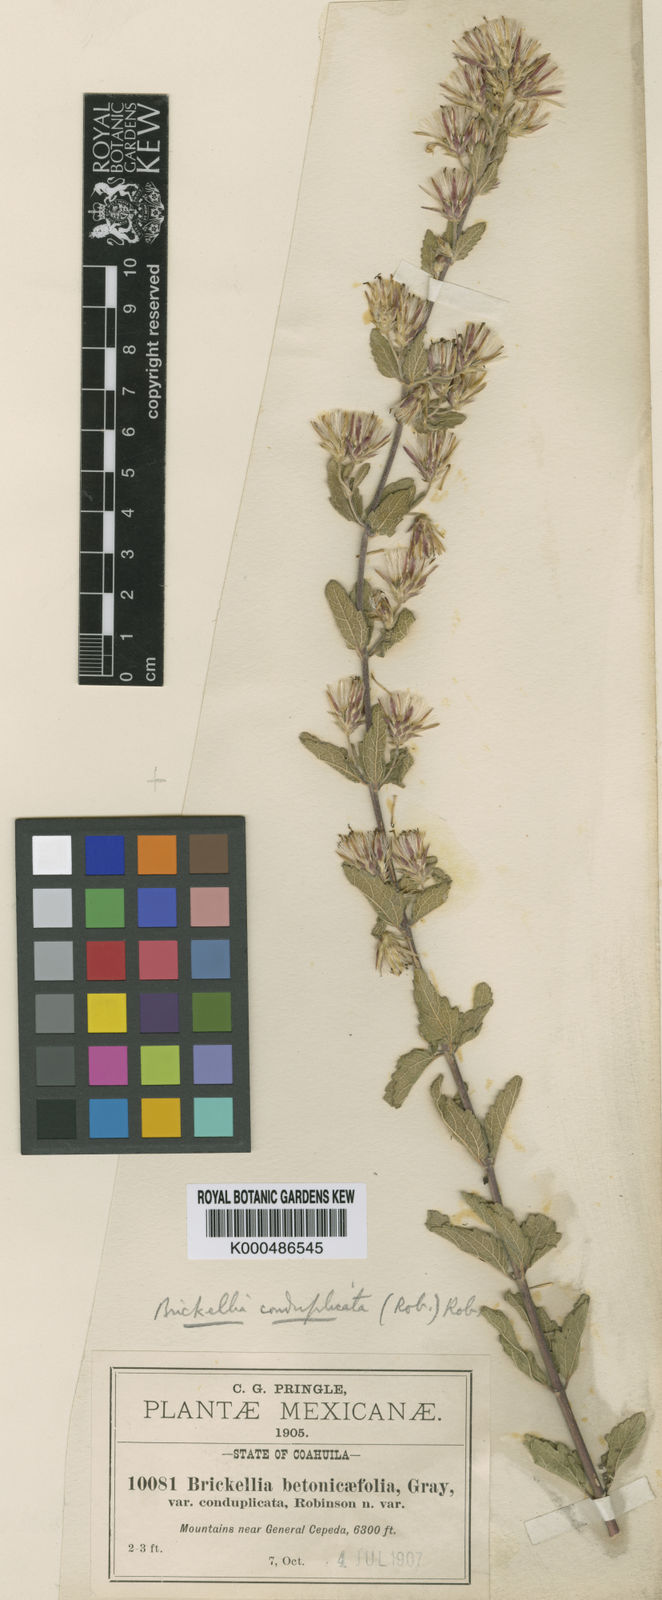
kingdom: Plantae
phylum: Tracheophyta
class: Magnoliopsida
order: Asterales
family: Asteraceae
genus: Brickellia
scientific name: Brickellia lemmonii
